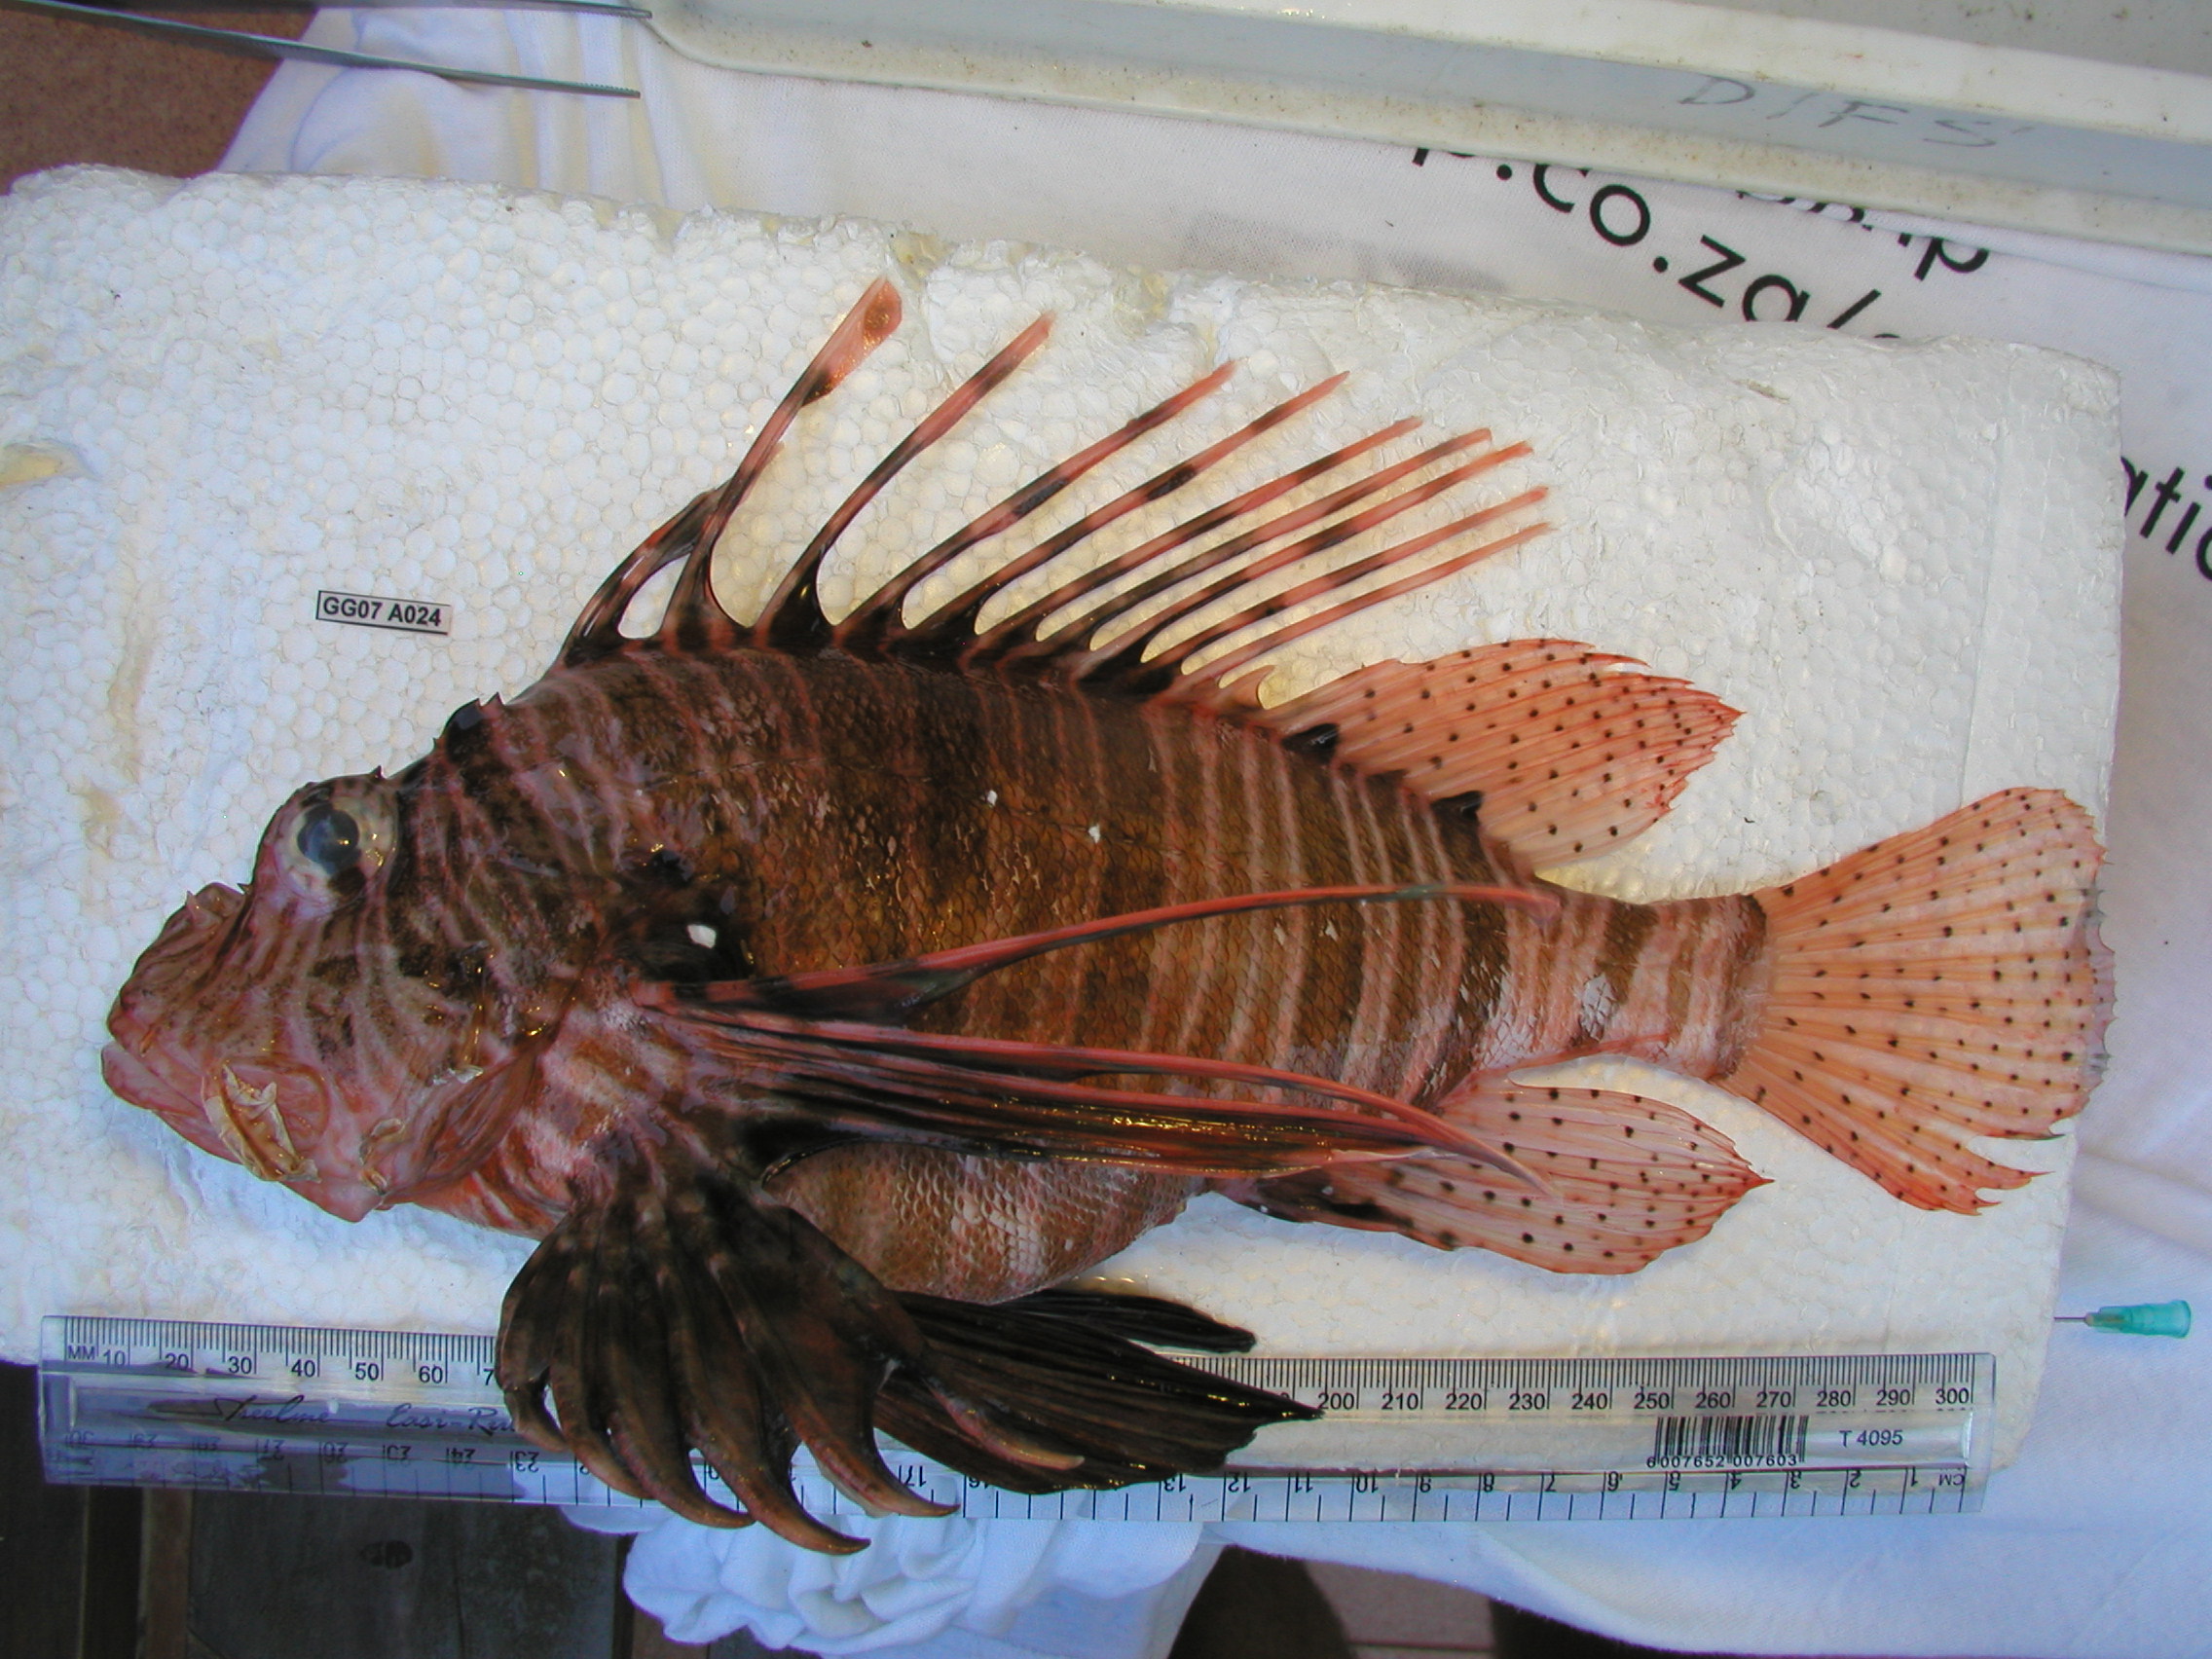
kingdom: Animalia
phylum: Chordata
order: Scorpaeniformes
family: Scorpaenidae
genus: Pterois
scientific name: Pterois miles
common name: Devil firefish
